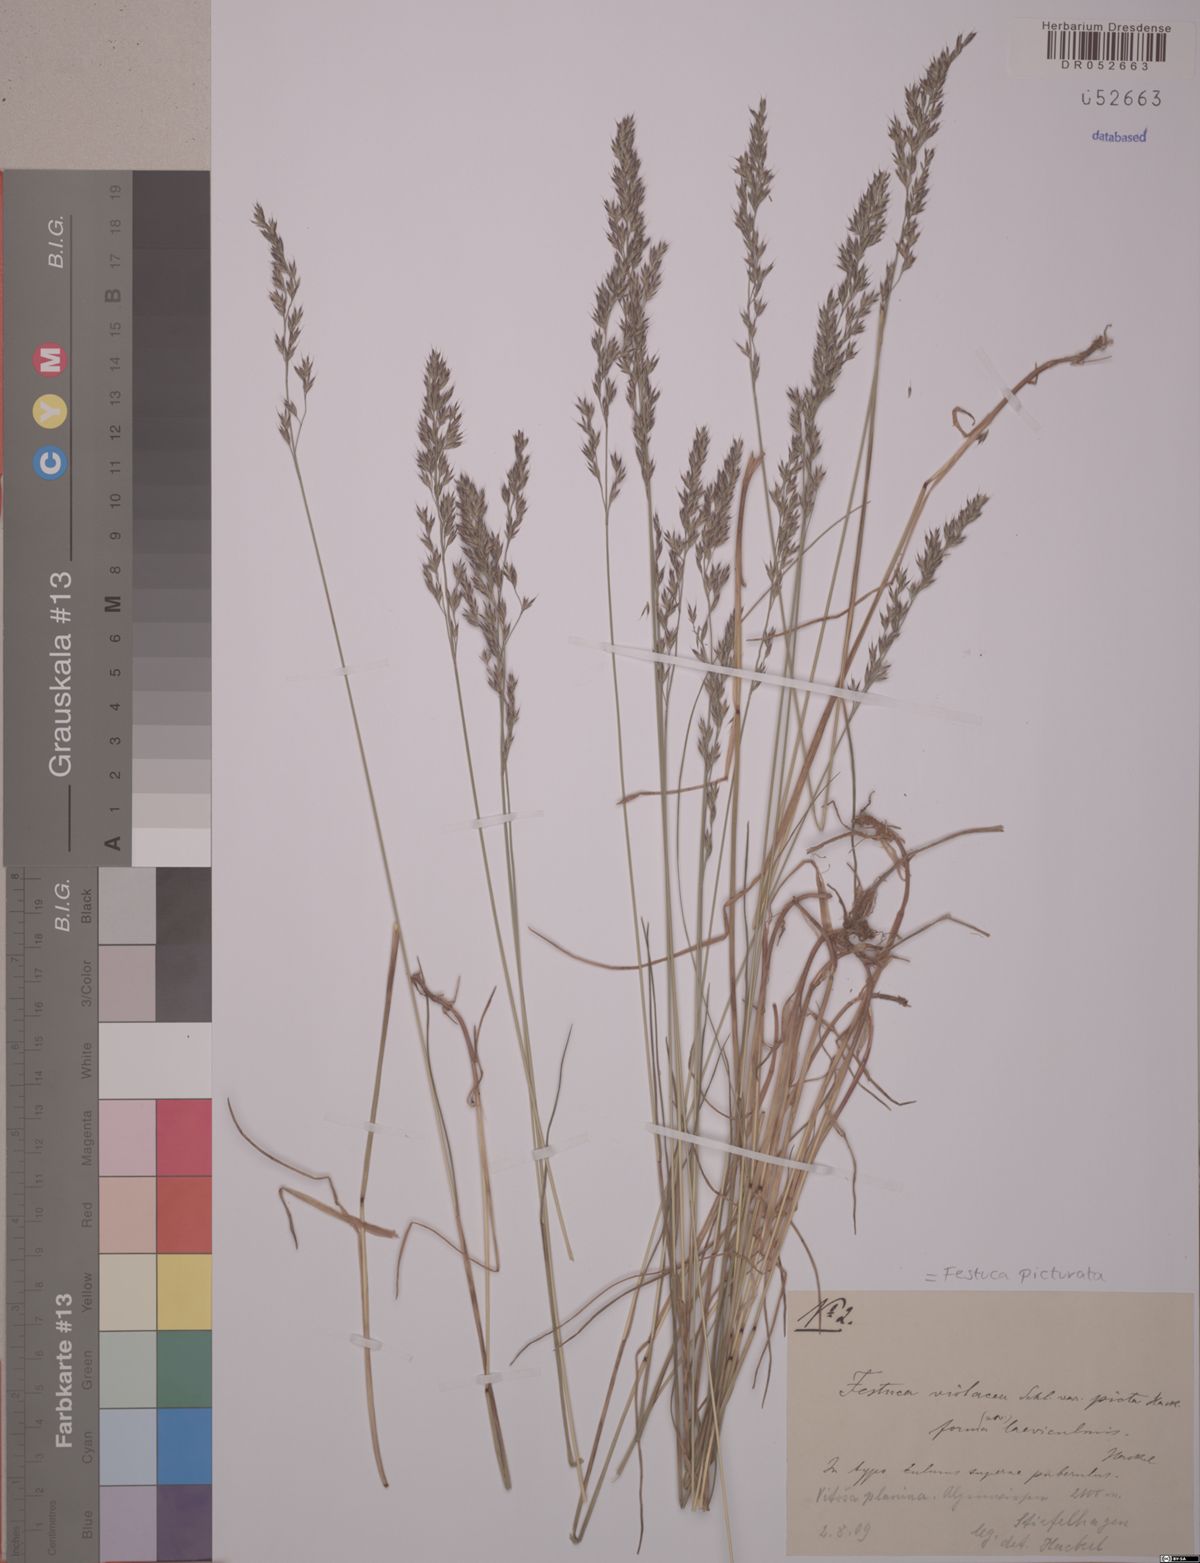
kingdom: Plantae
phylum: Tracheophyta
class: Liliopsida
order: Poales
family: Poaceae
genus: Festuca
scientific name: Festuca picturata
